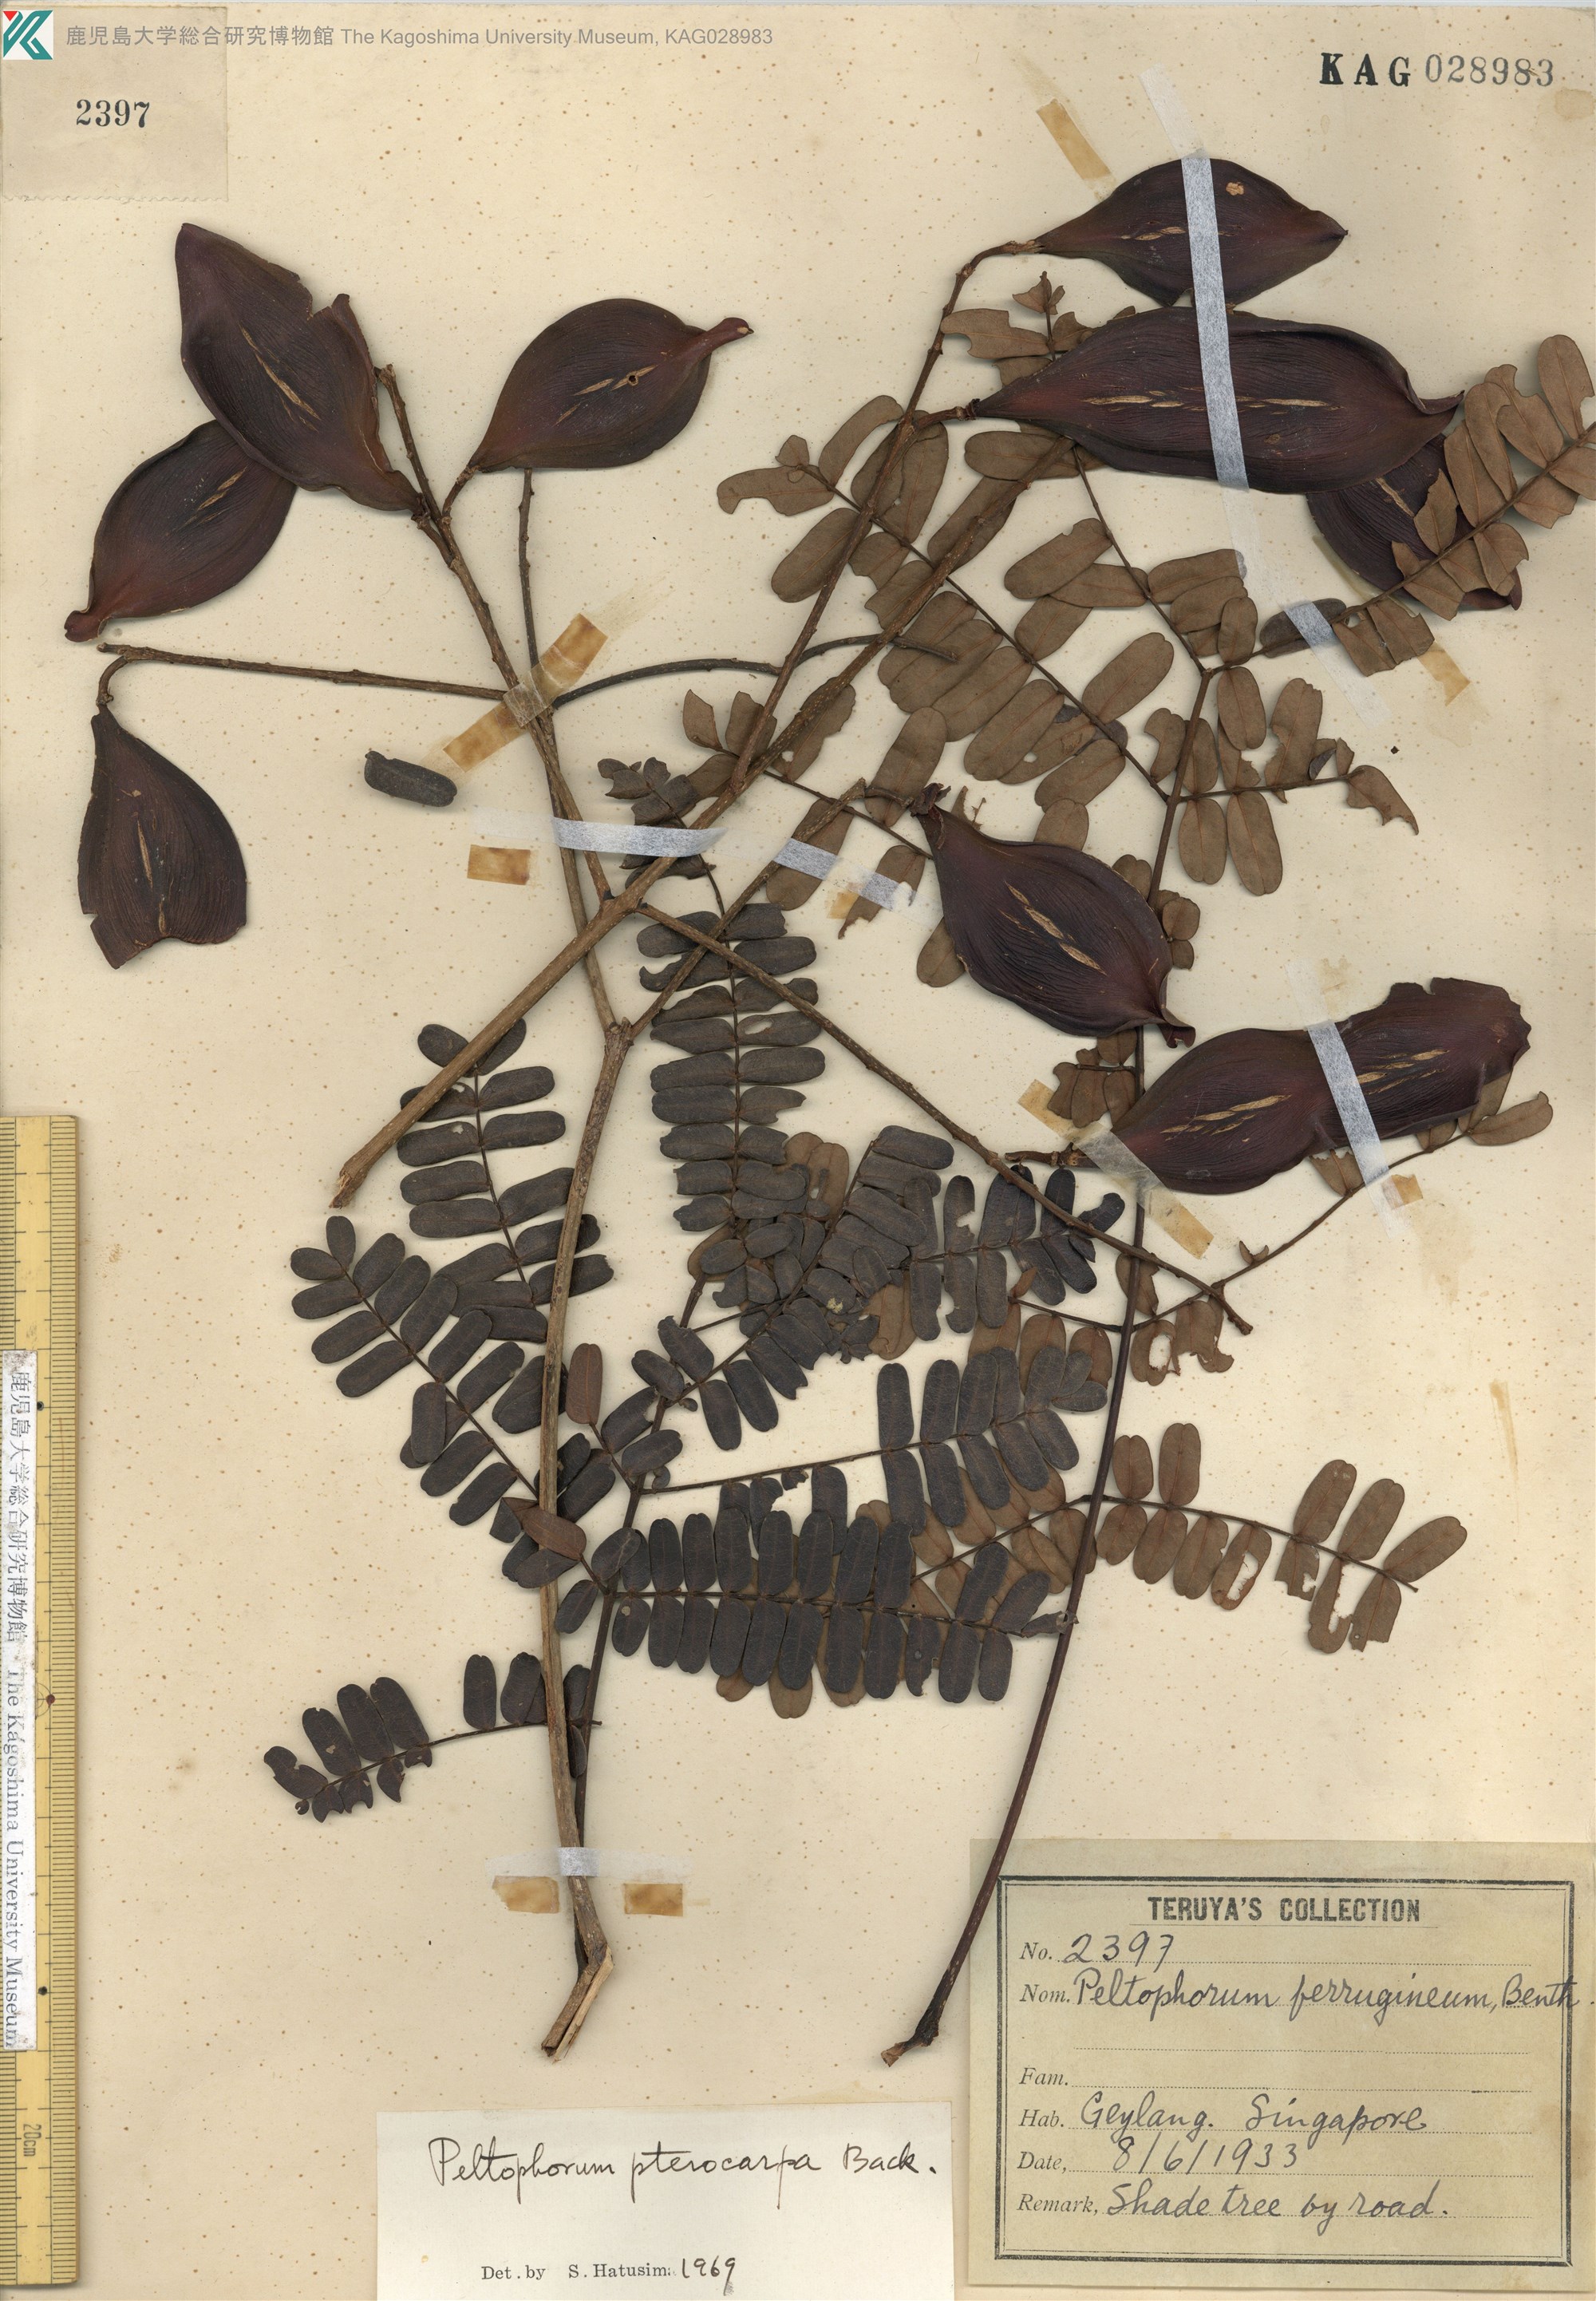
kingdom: Plantae
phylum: Tracheophyta
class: Magnoliopsida
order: Fabales
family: Fabaceae
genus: Peltophorum
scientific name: Peltophorum pterocarpum
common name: Yellow flame
